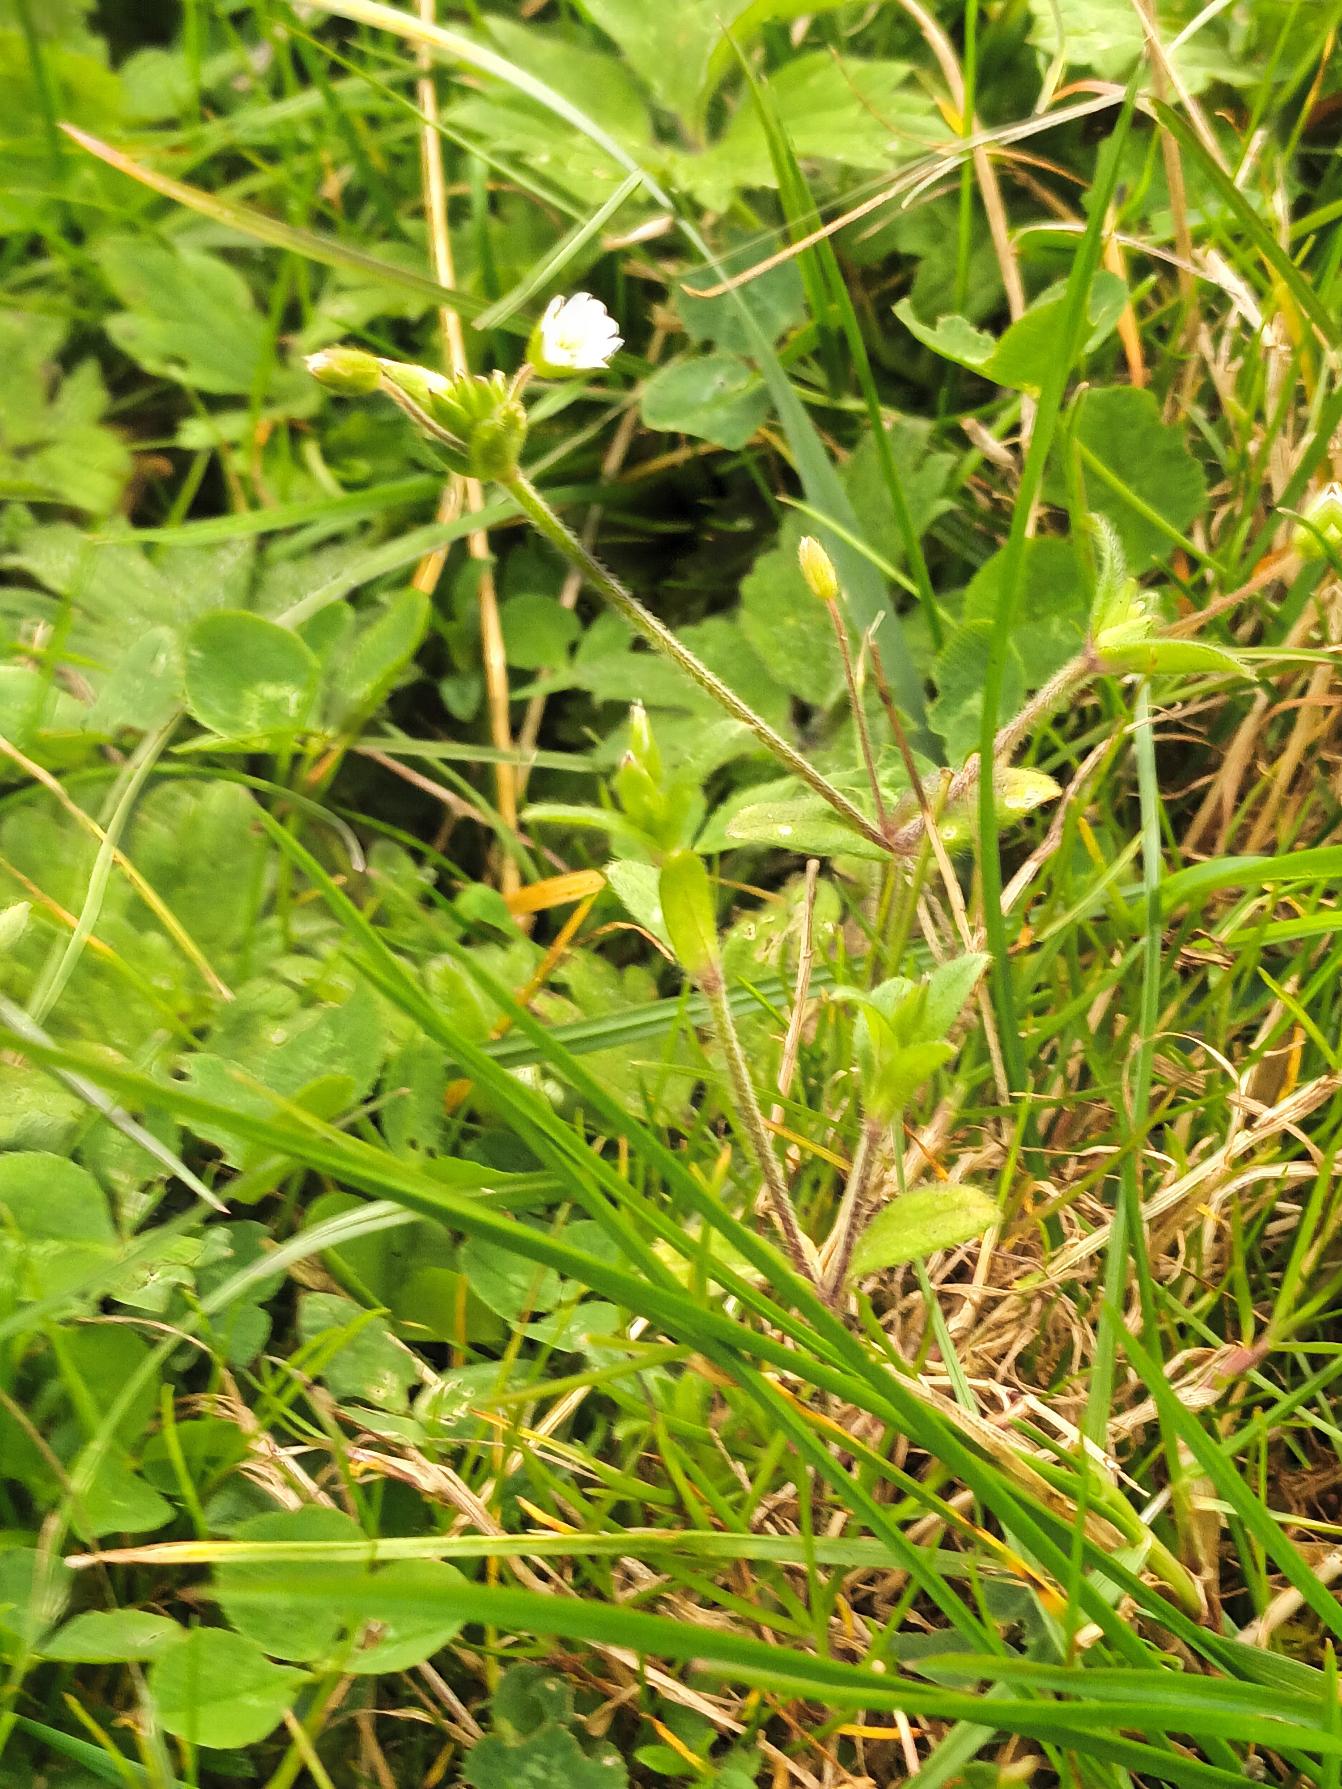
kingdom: Plantae
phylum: Tracheophyta
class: Magnoliopsida
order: Caryophyllales
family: Caryophyllaceae
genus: Cerastium
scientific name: Cerastium fontanum
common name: Almindelig hønsetarm
